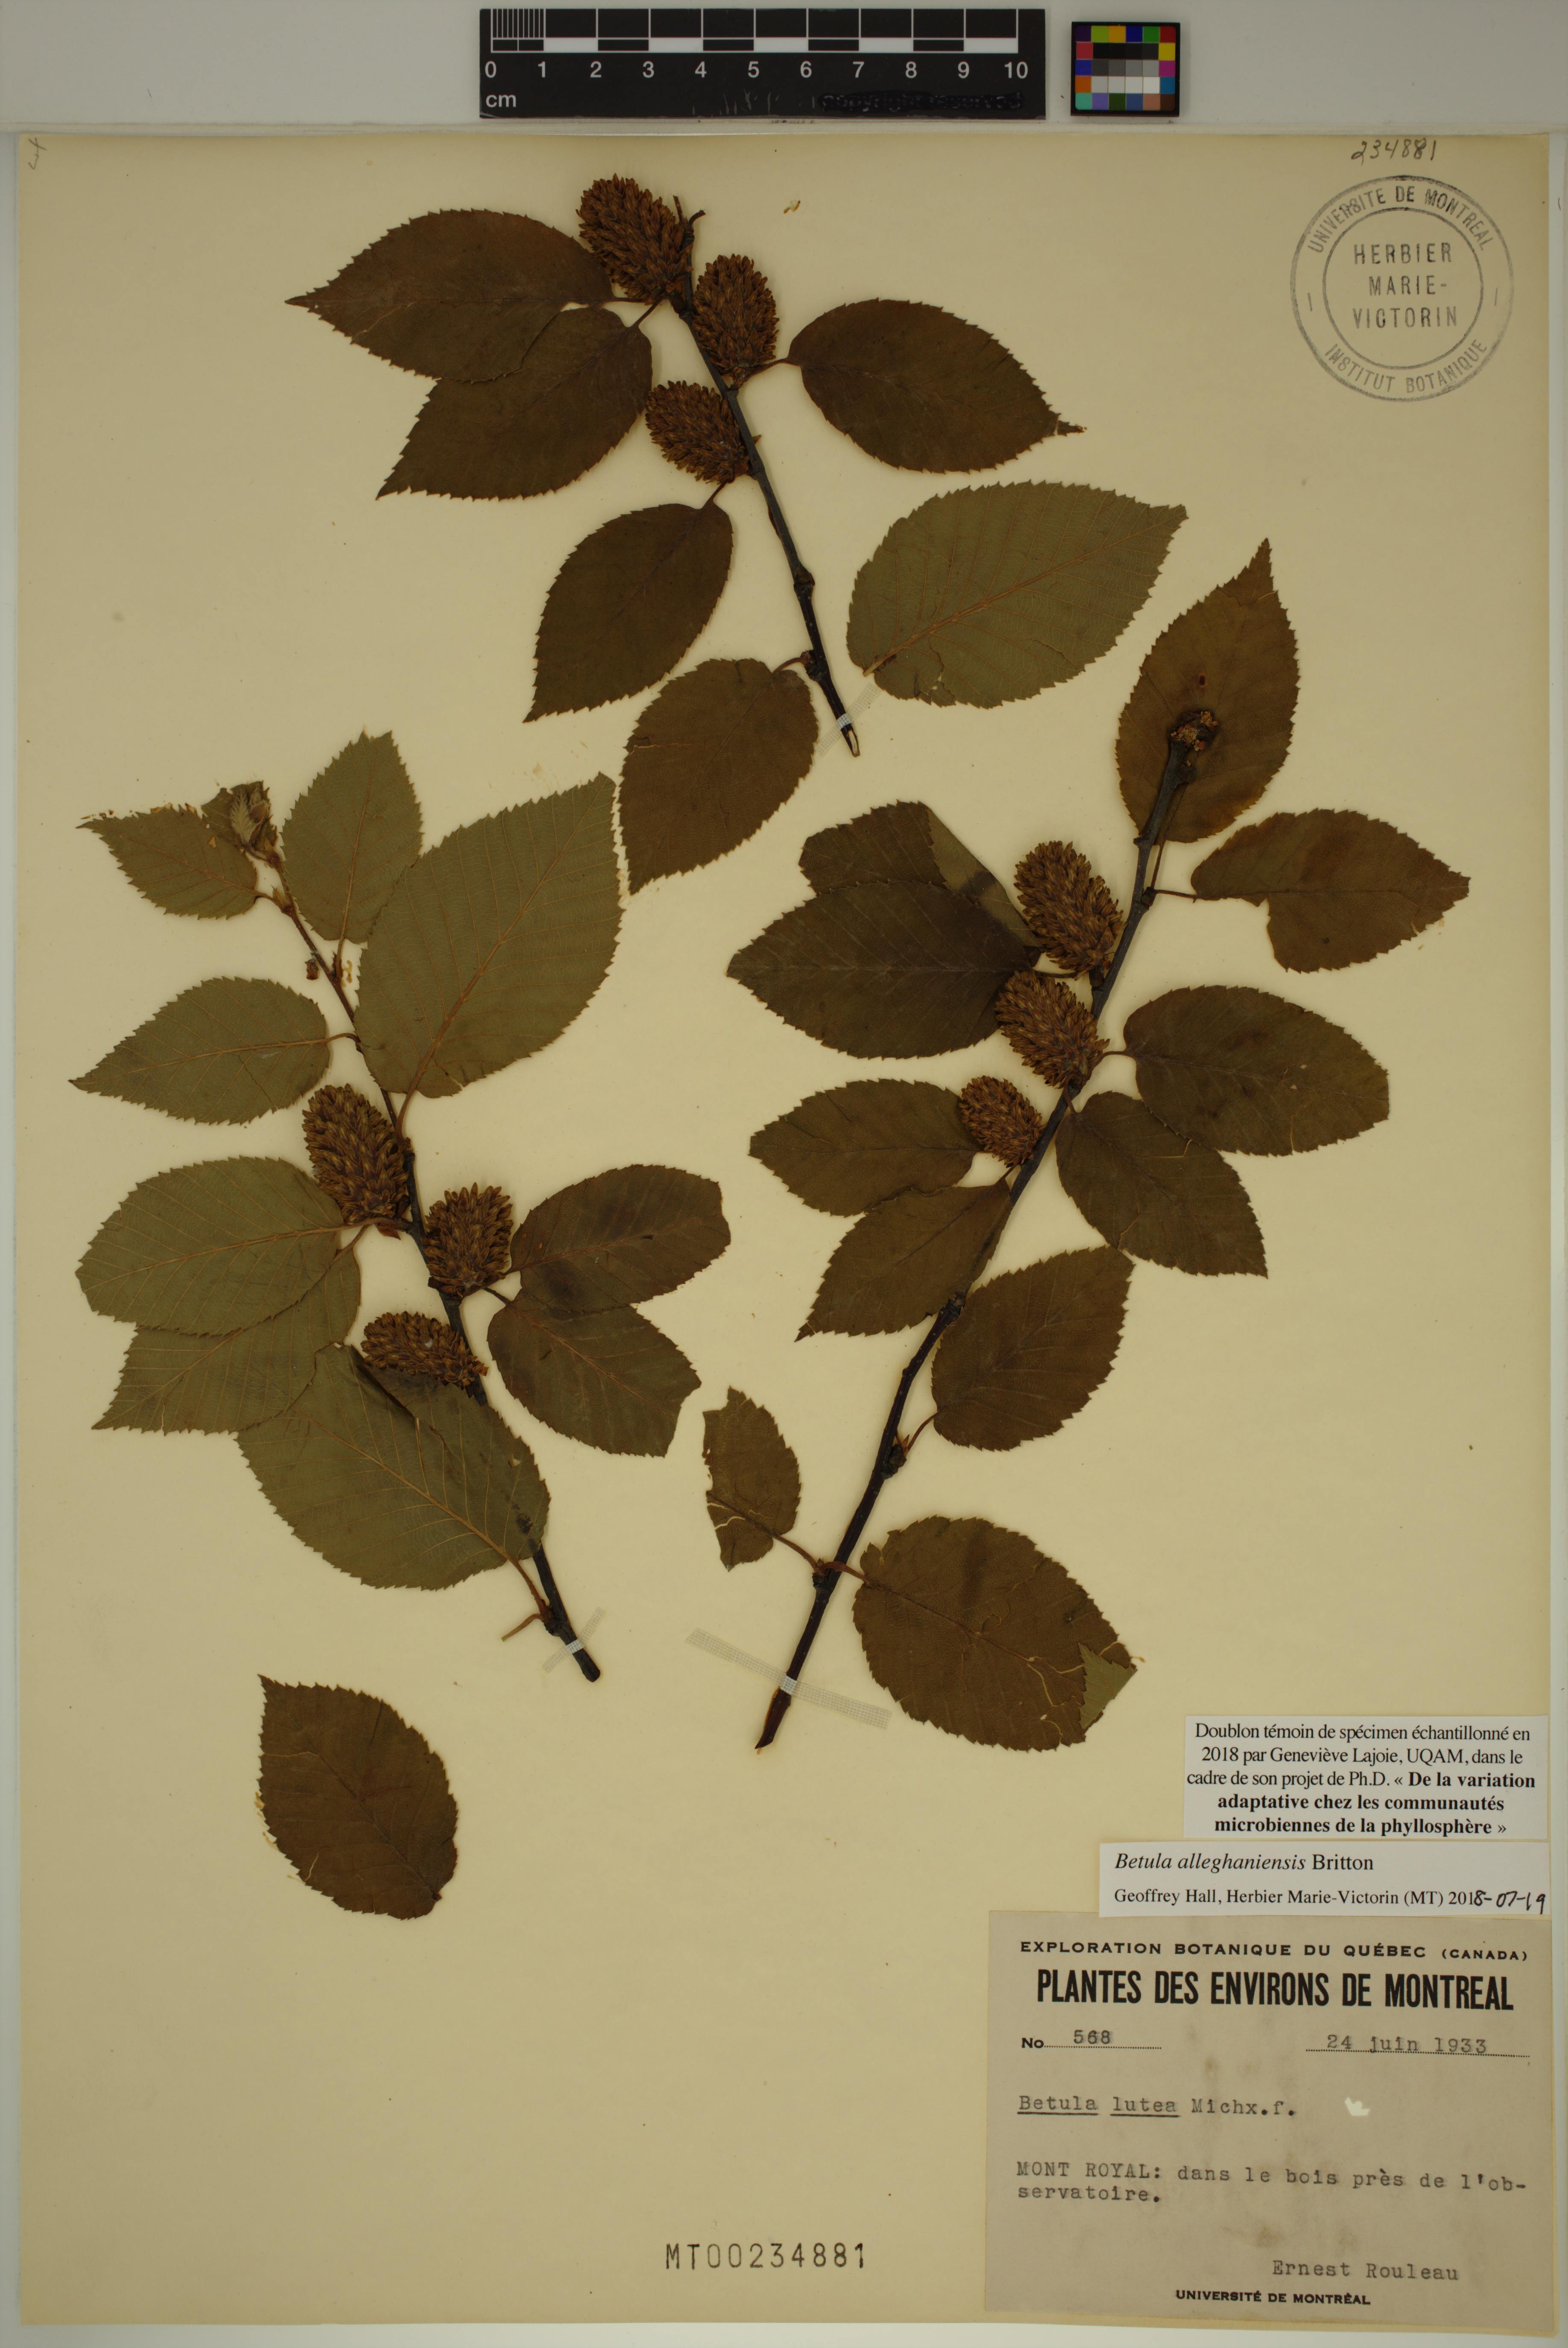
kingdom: Plantae
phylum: Tracheophyta
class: Magnoliopsida
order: Fagales
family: Betulaceae
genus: Betula
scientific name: Betula alleghaniensis
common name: Yellow birch
